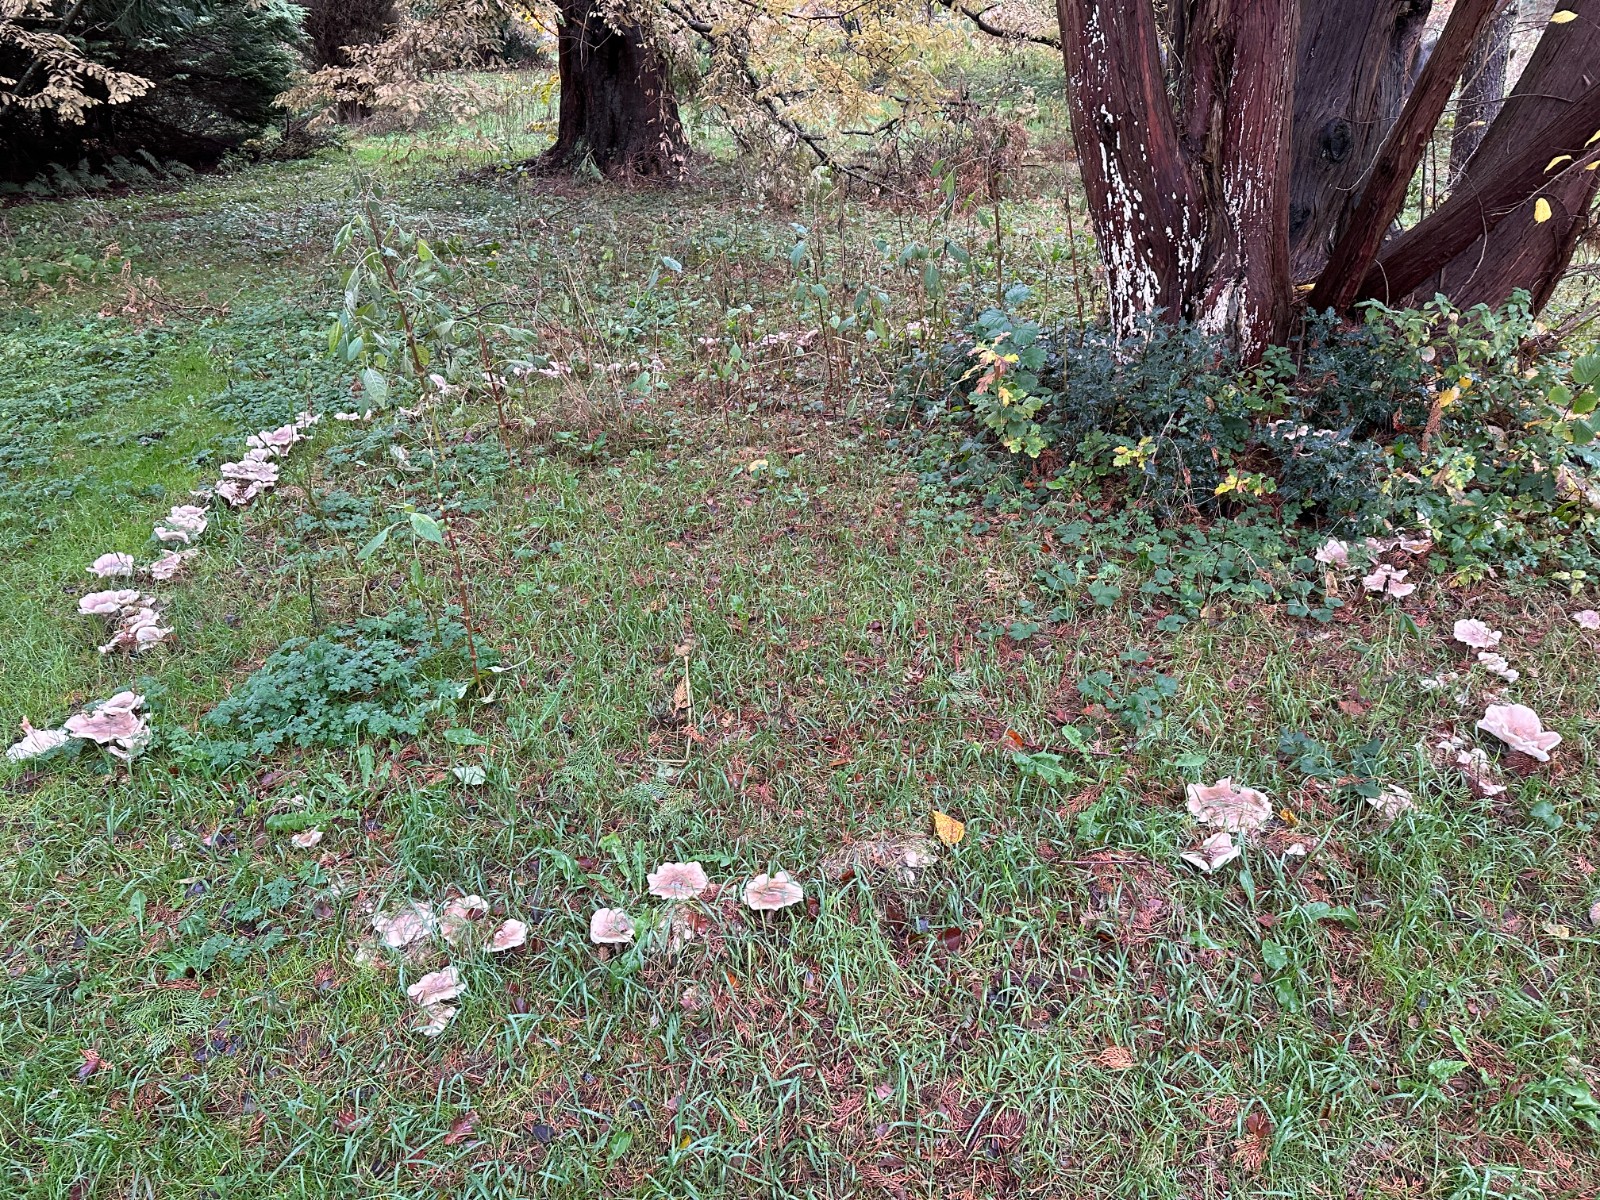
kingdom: Fungi
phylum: Basidiomycota
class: Agaricomycetes
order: Agaricales
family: Tricholomataceae
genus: Clitocybe
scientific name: Clitocybe nebularis
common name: tåge-tragthat
